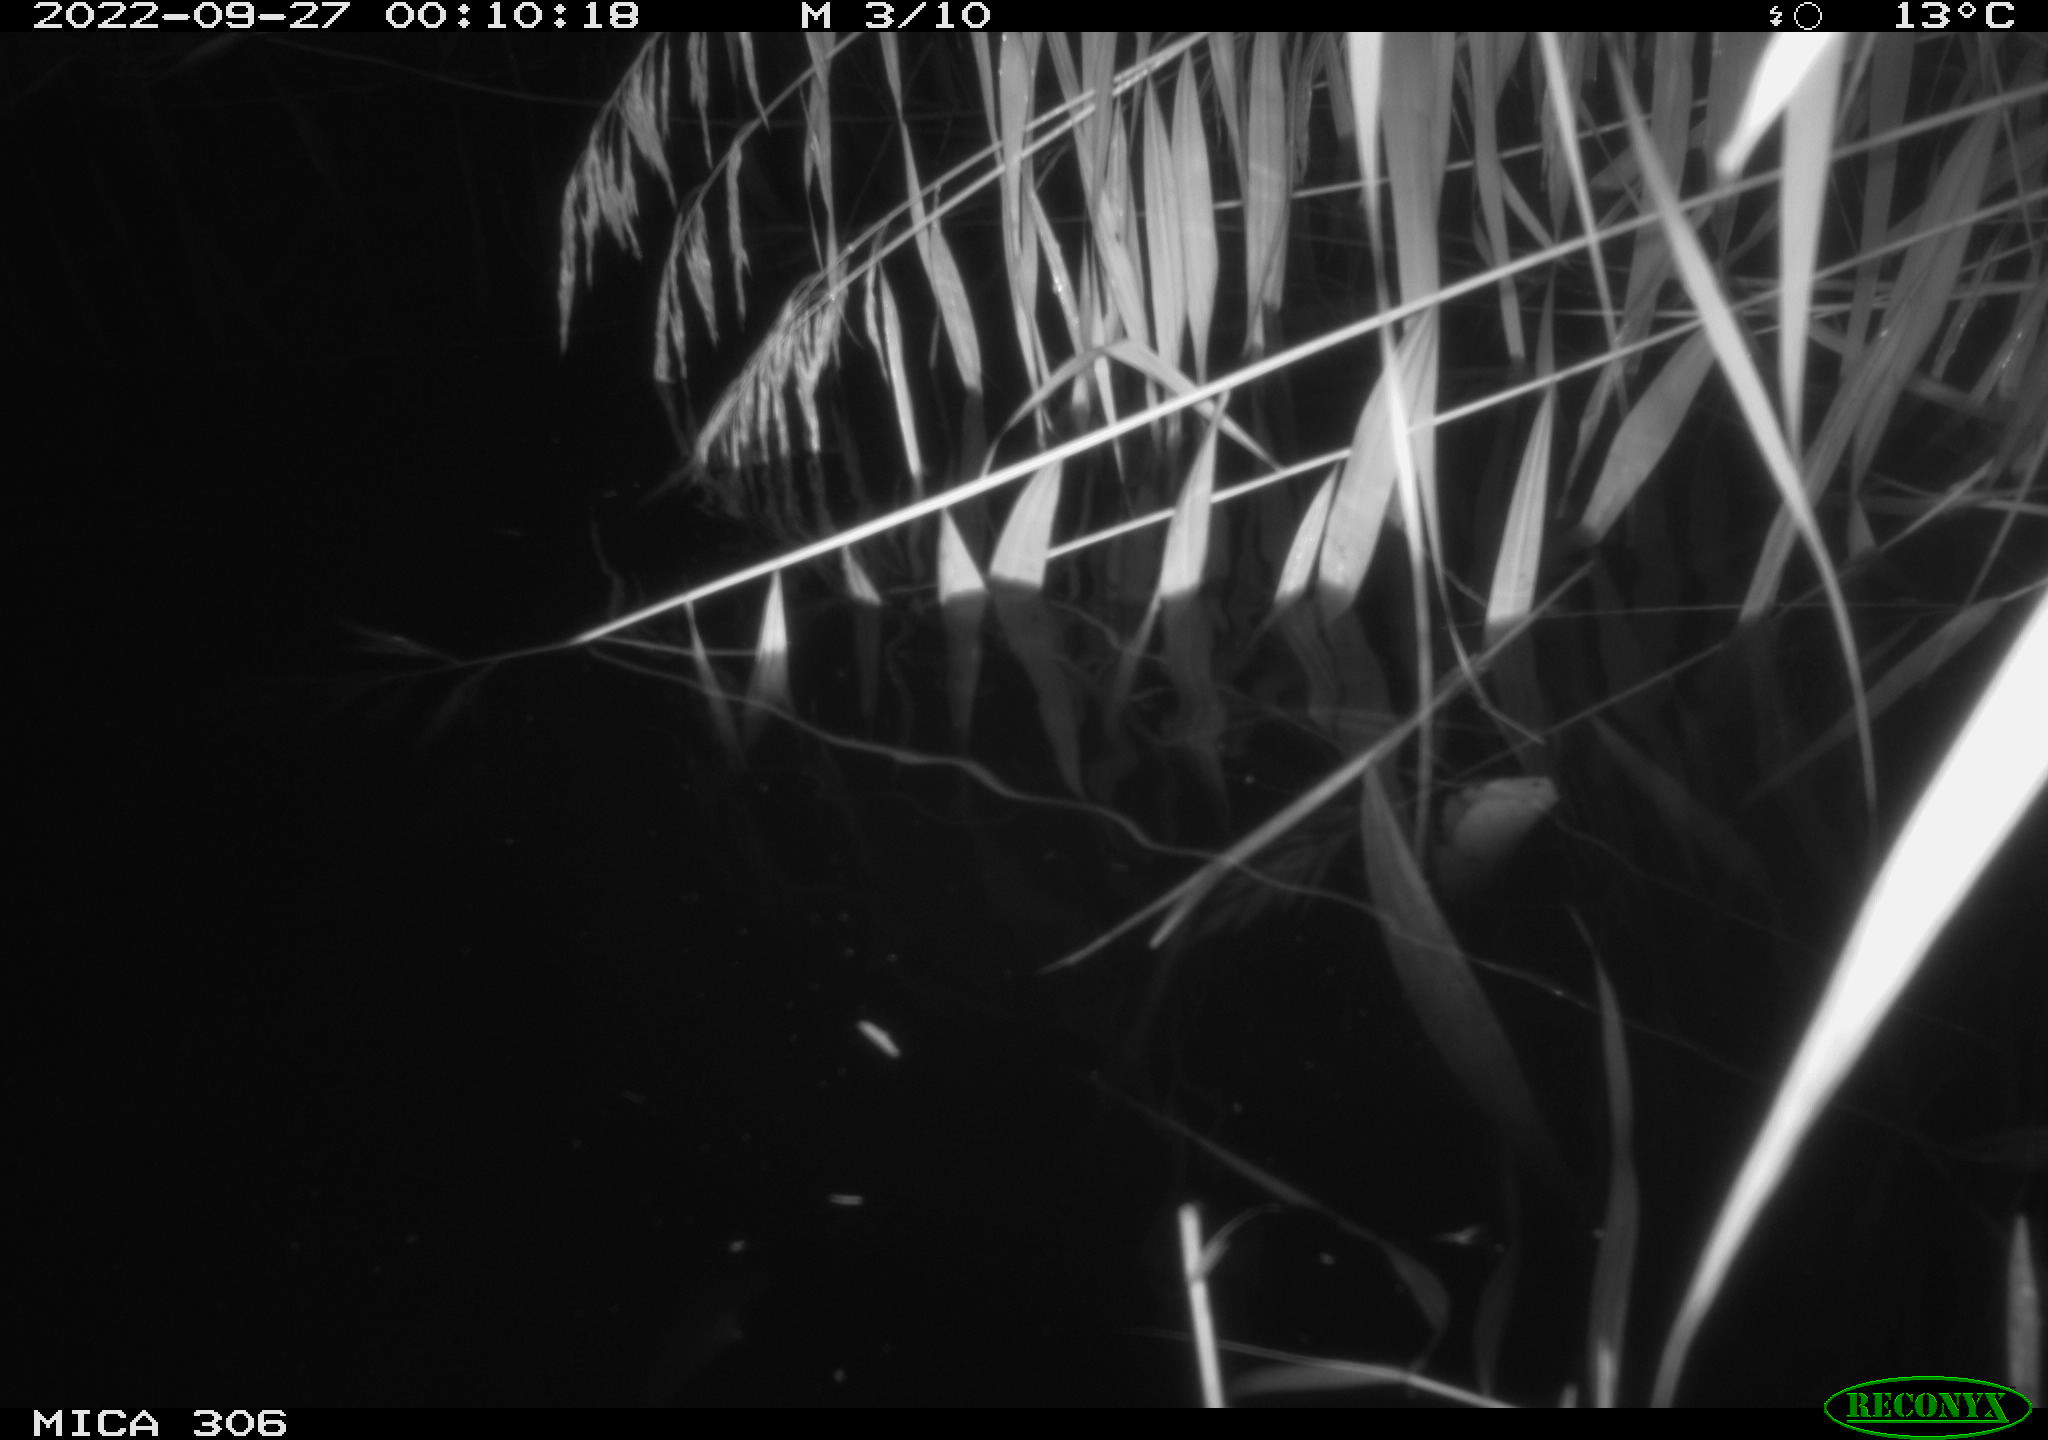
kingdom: Animalia
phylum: Chordata
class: Mammalia
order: Rodentia
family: Muridae
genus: Rattus
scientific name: Rattus norvegicus
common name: Brown rat
